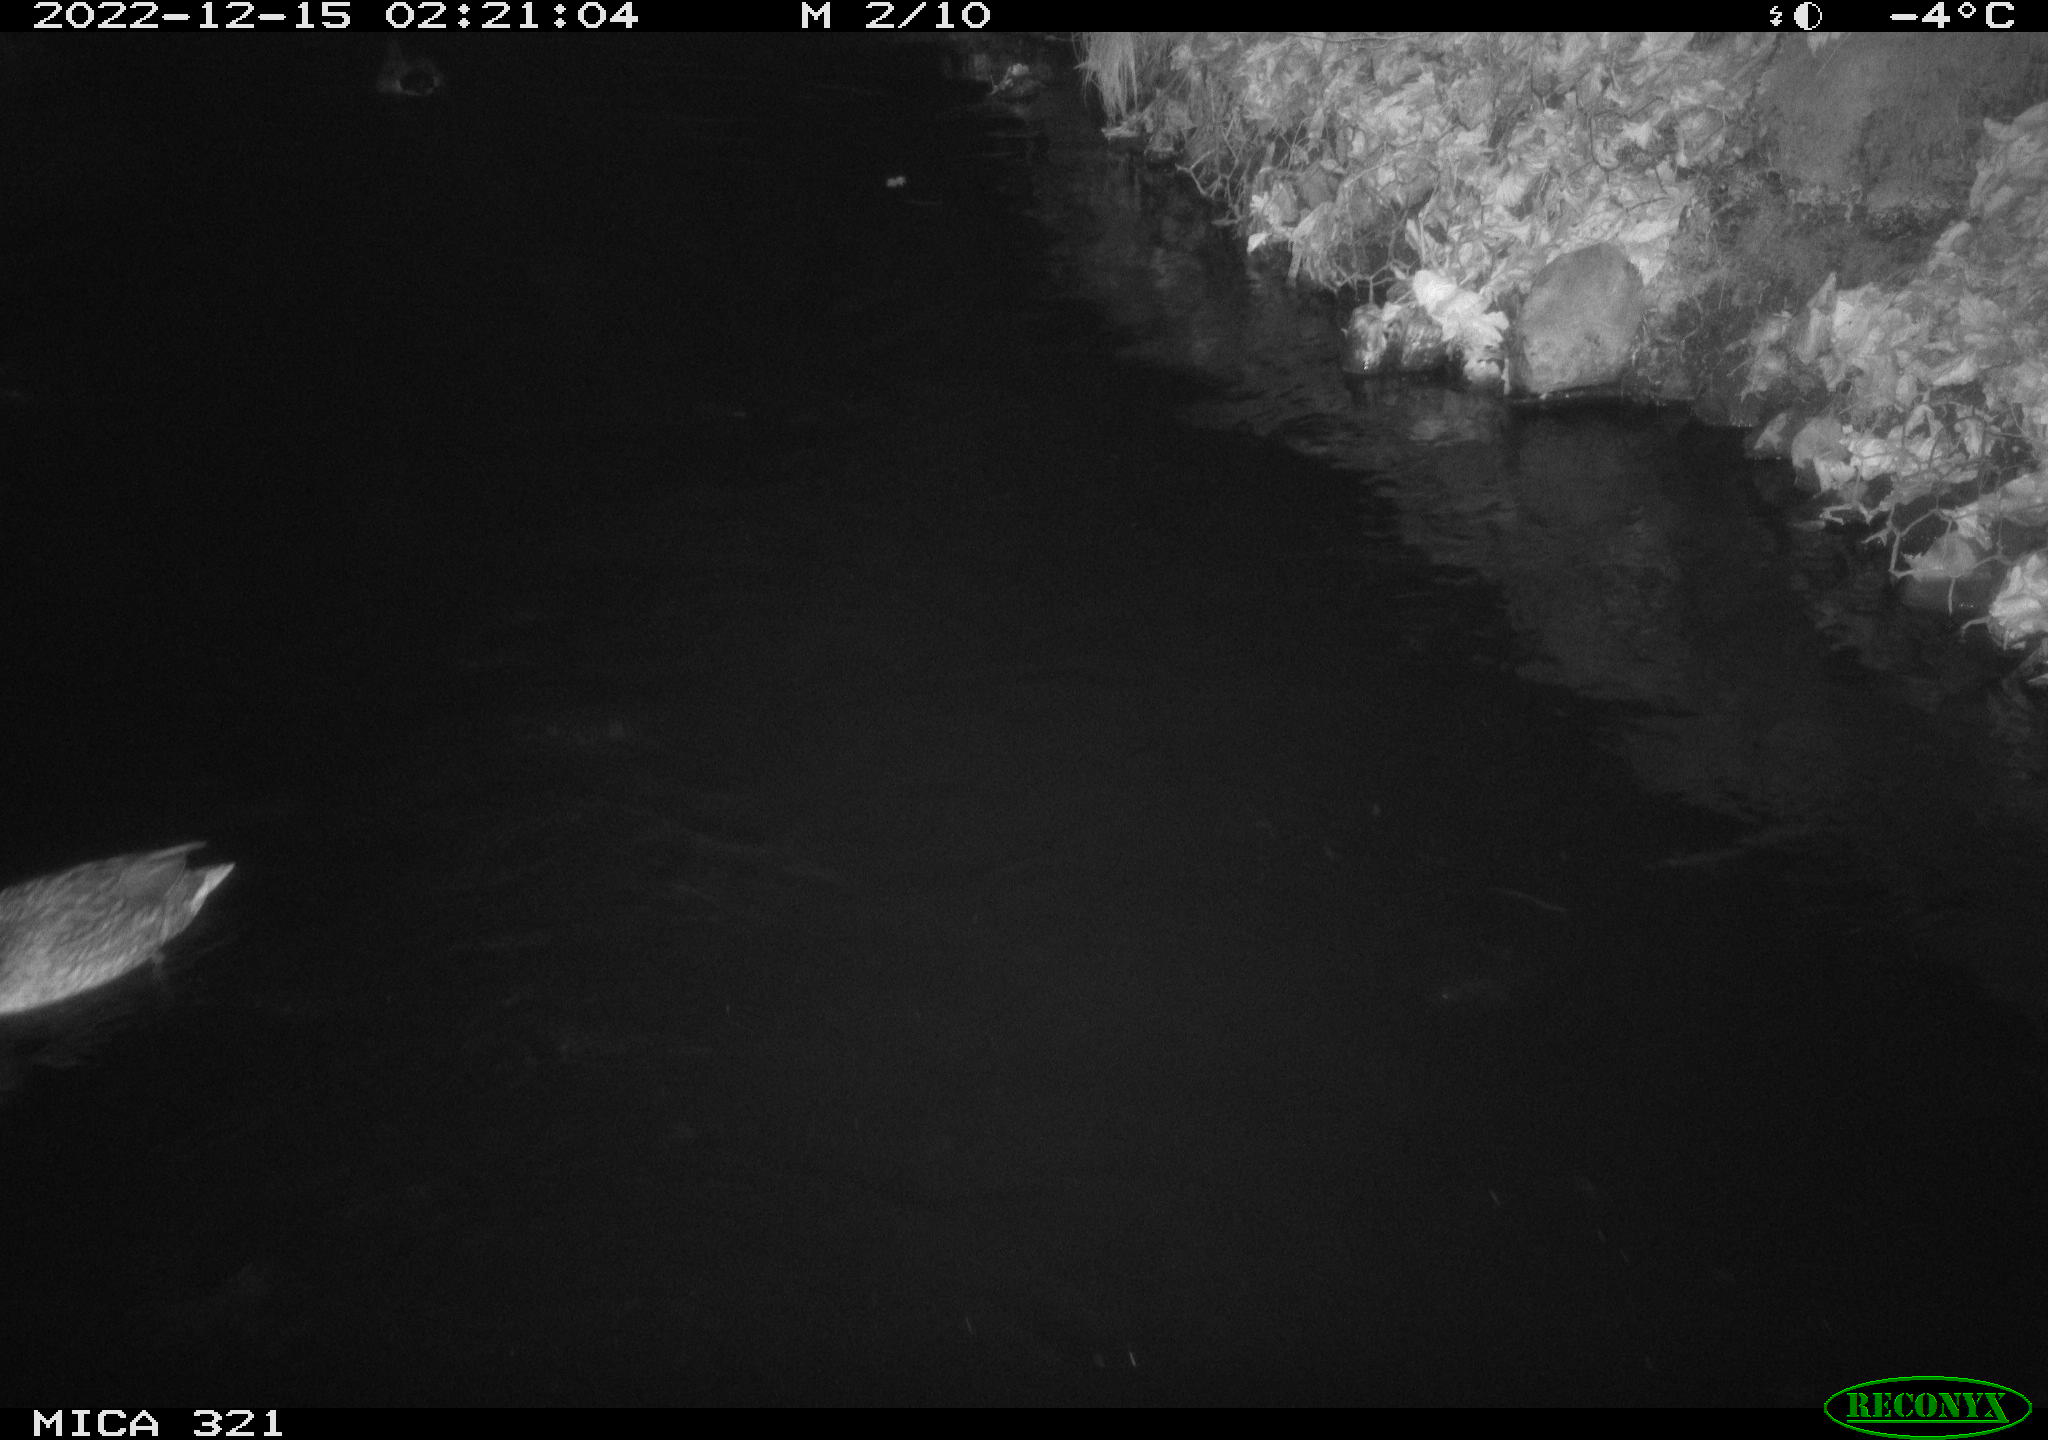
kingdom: Animalia
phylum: Chordata
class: Aves
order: Anseriformes
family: Anatidae
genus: Anas
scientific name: Anas
